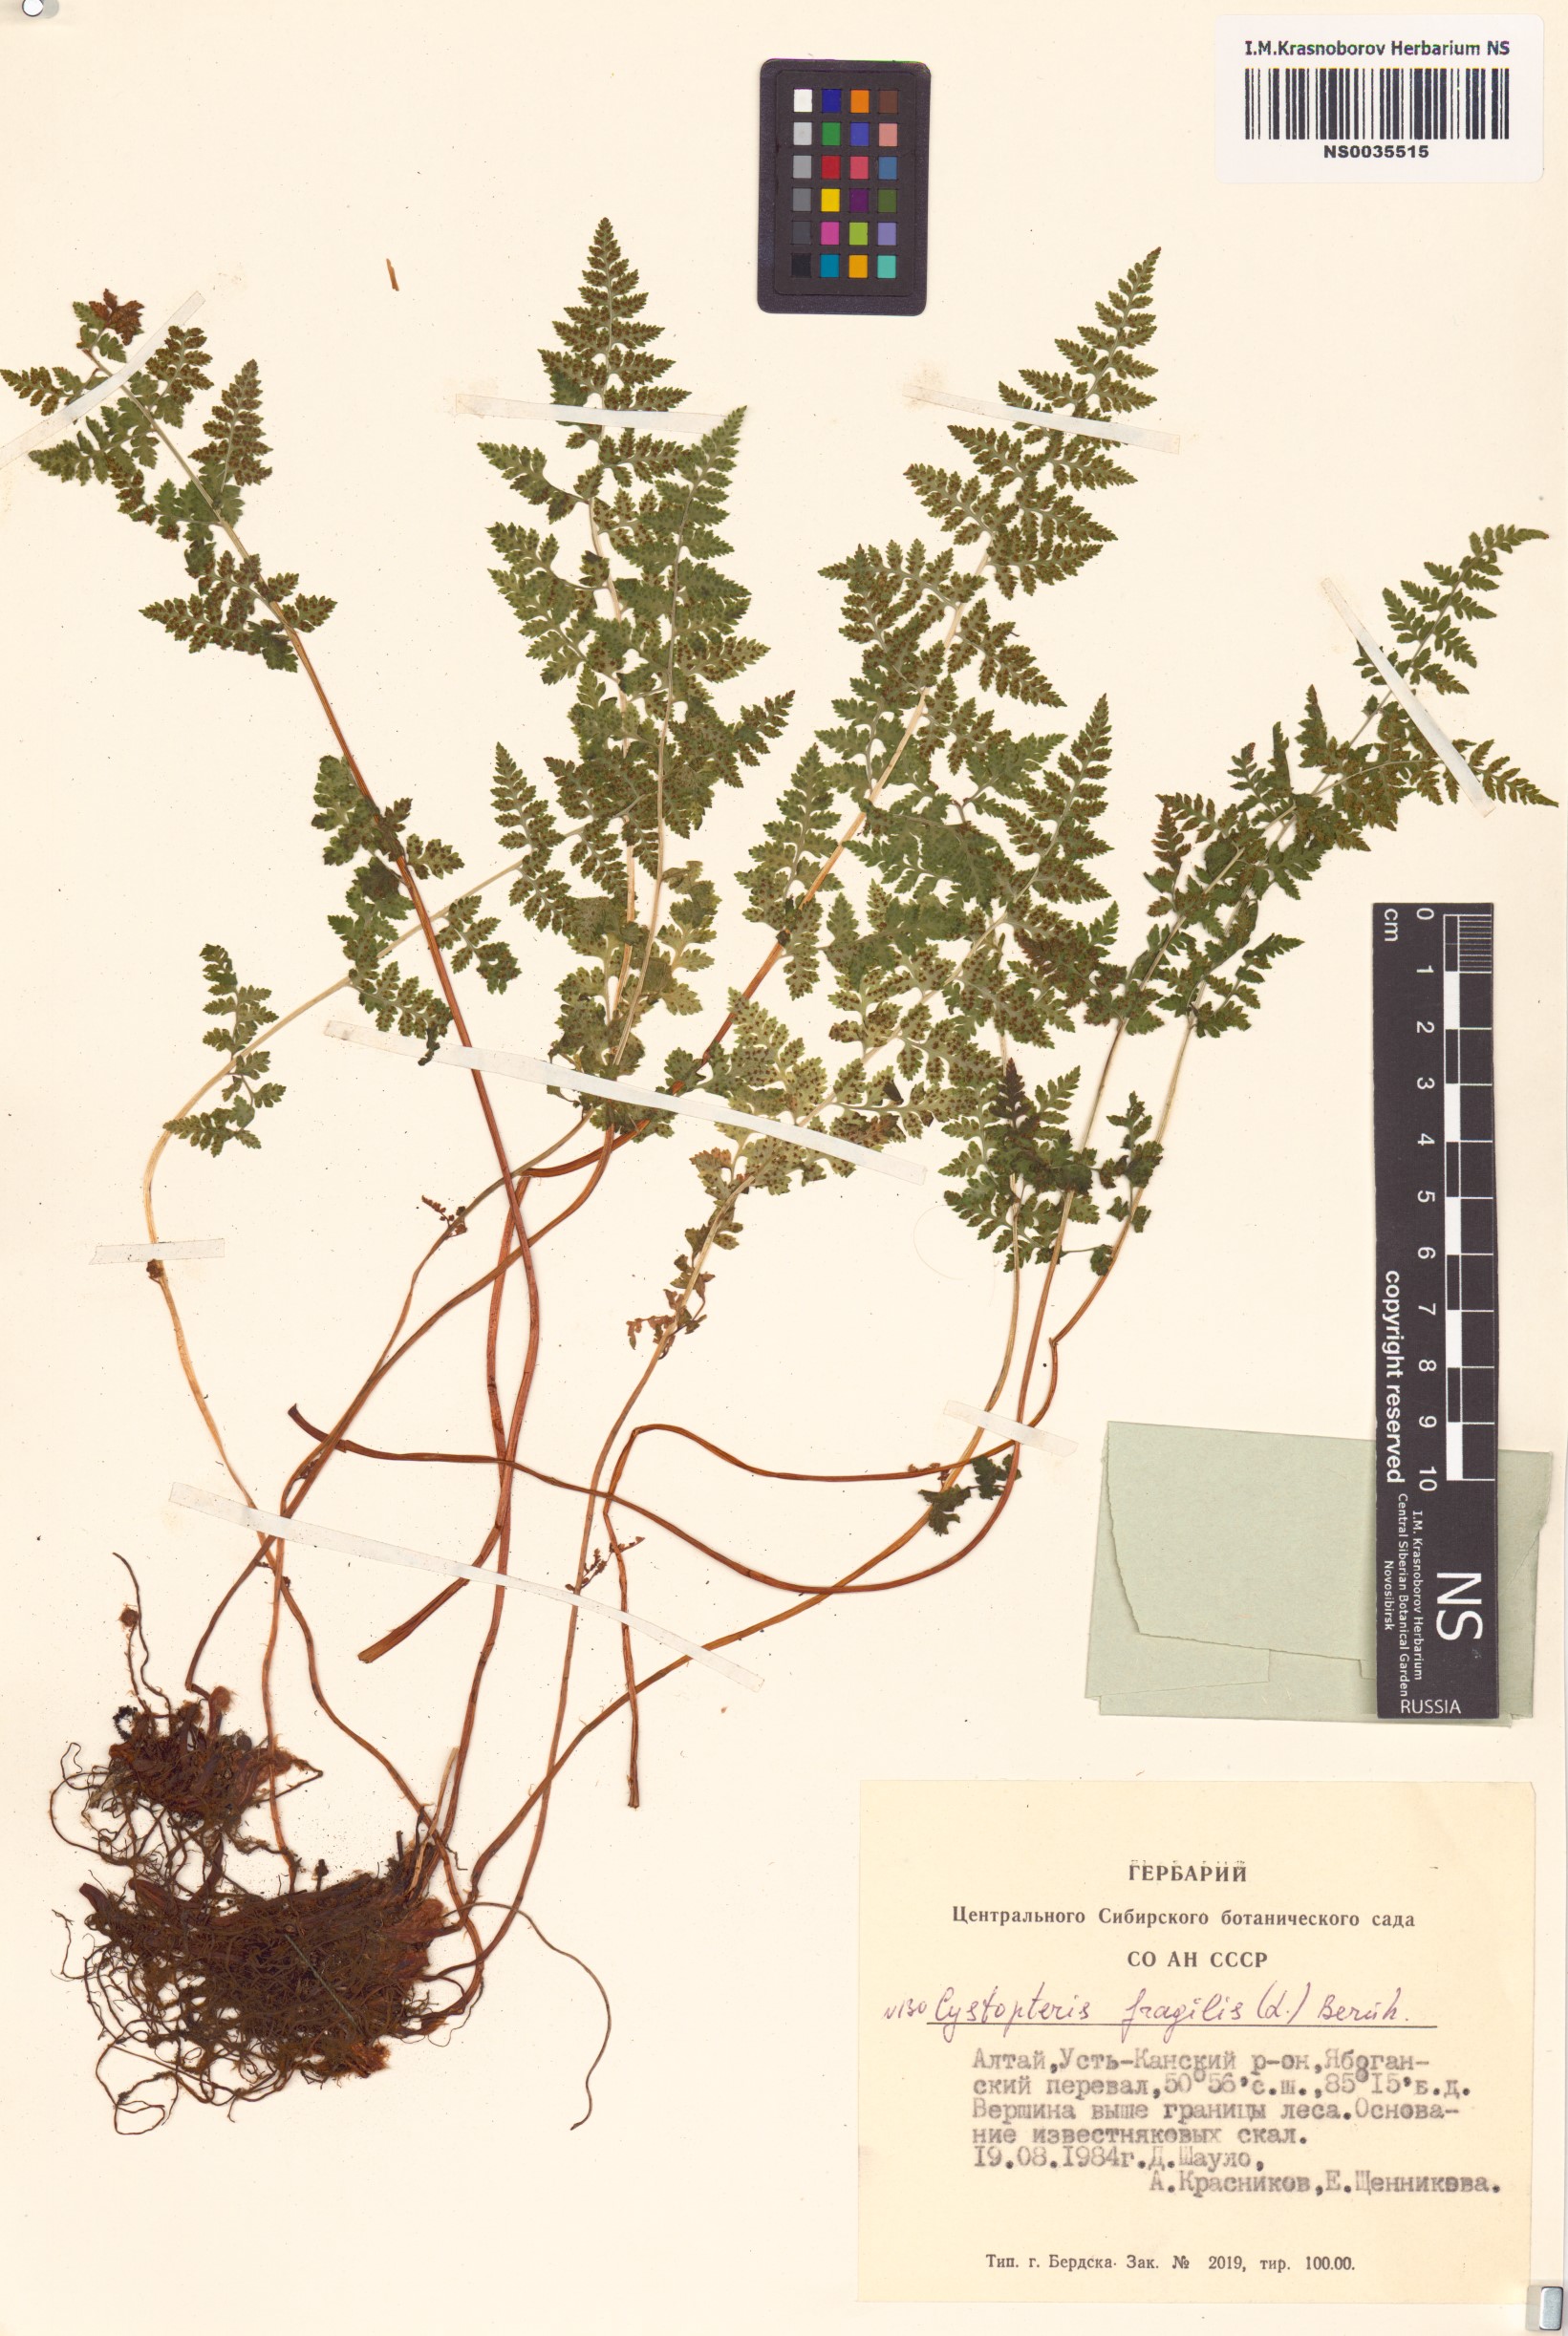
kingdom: Plantae
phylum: Tracheophyta
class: Polypodiopsida
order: Polypodiales
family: Cystopteridaceae
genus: Cystopteris
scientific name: Cystopteris fragilis
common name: Brittle bladder fern
